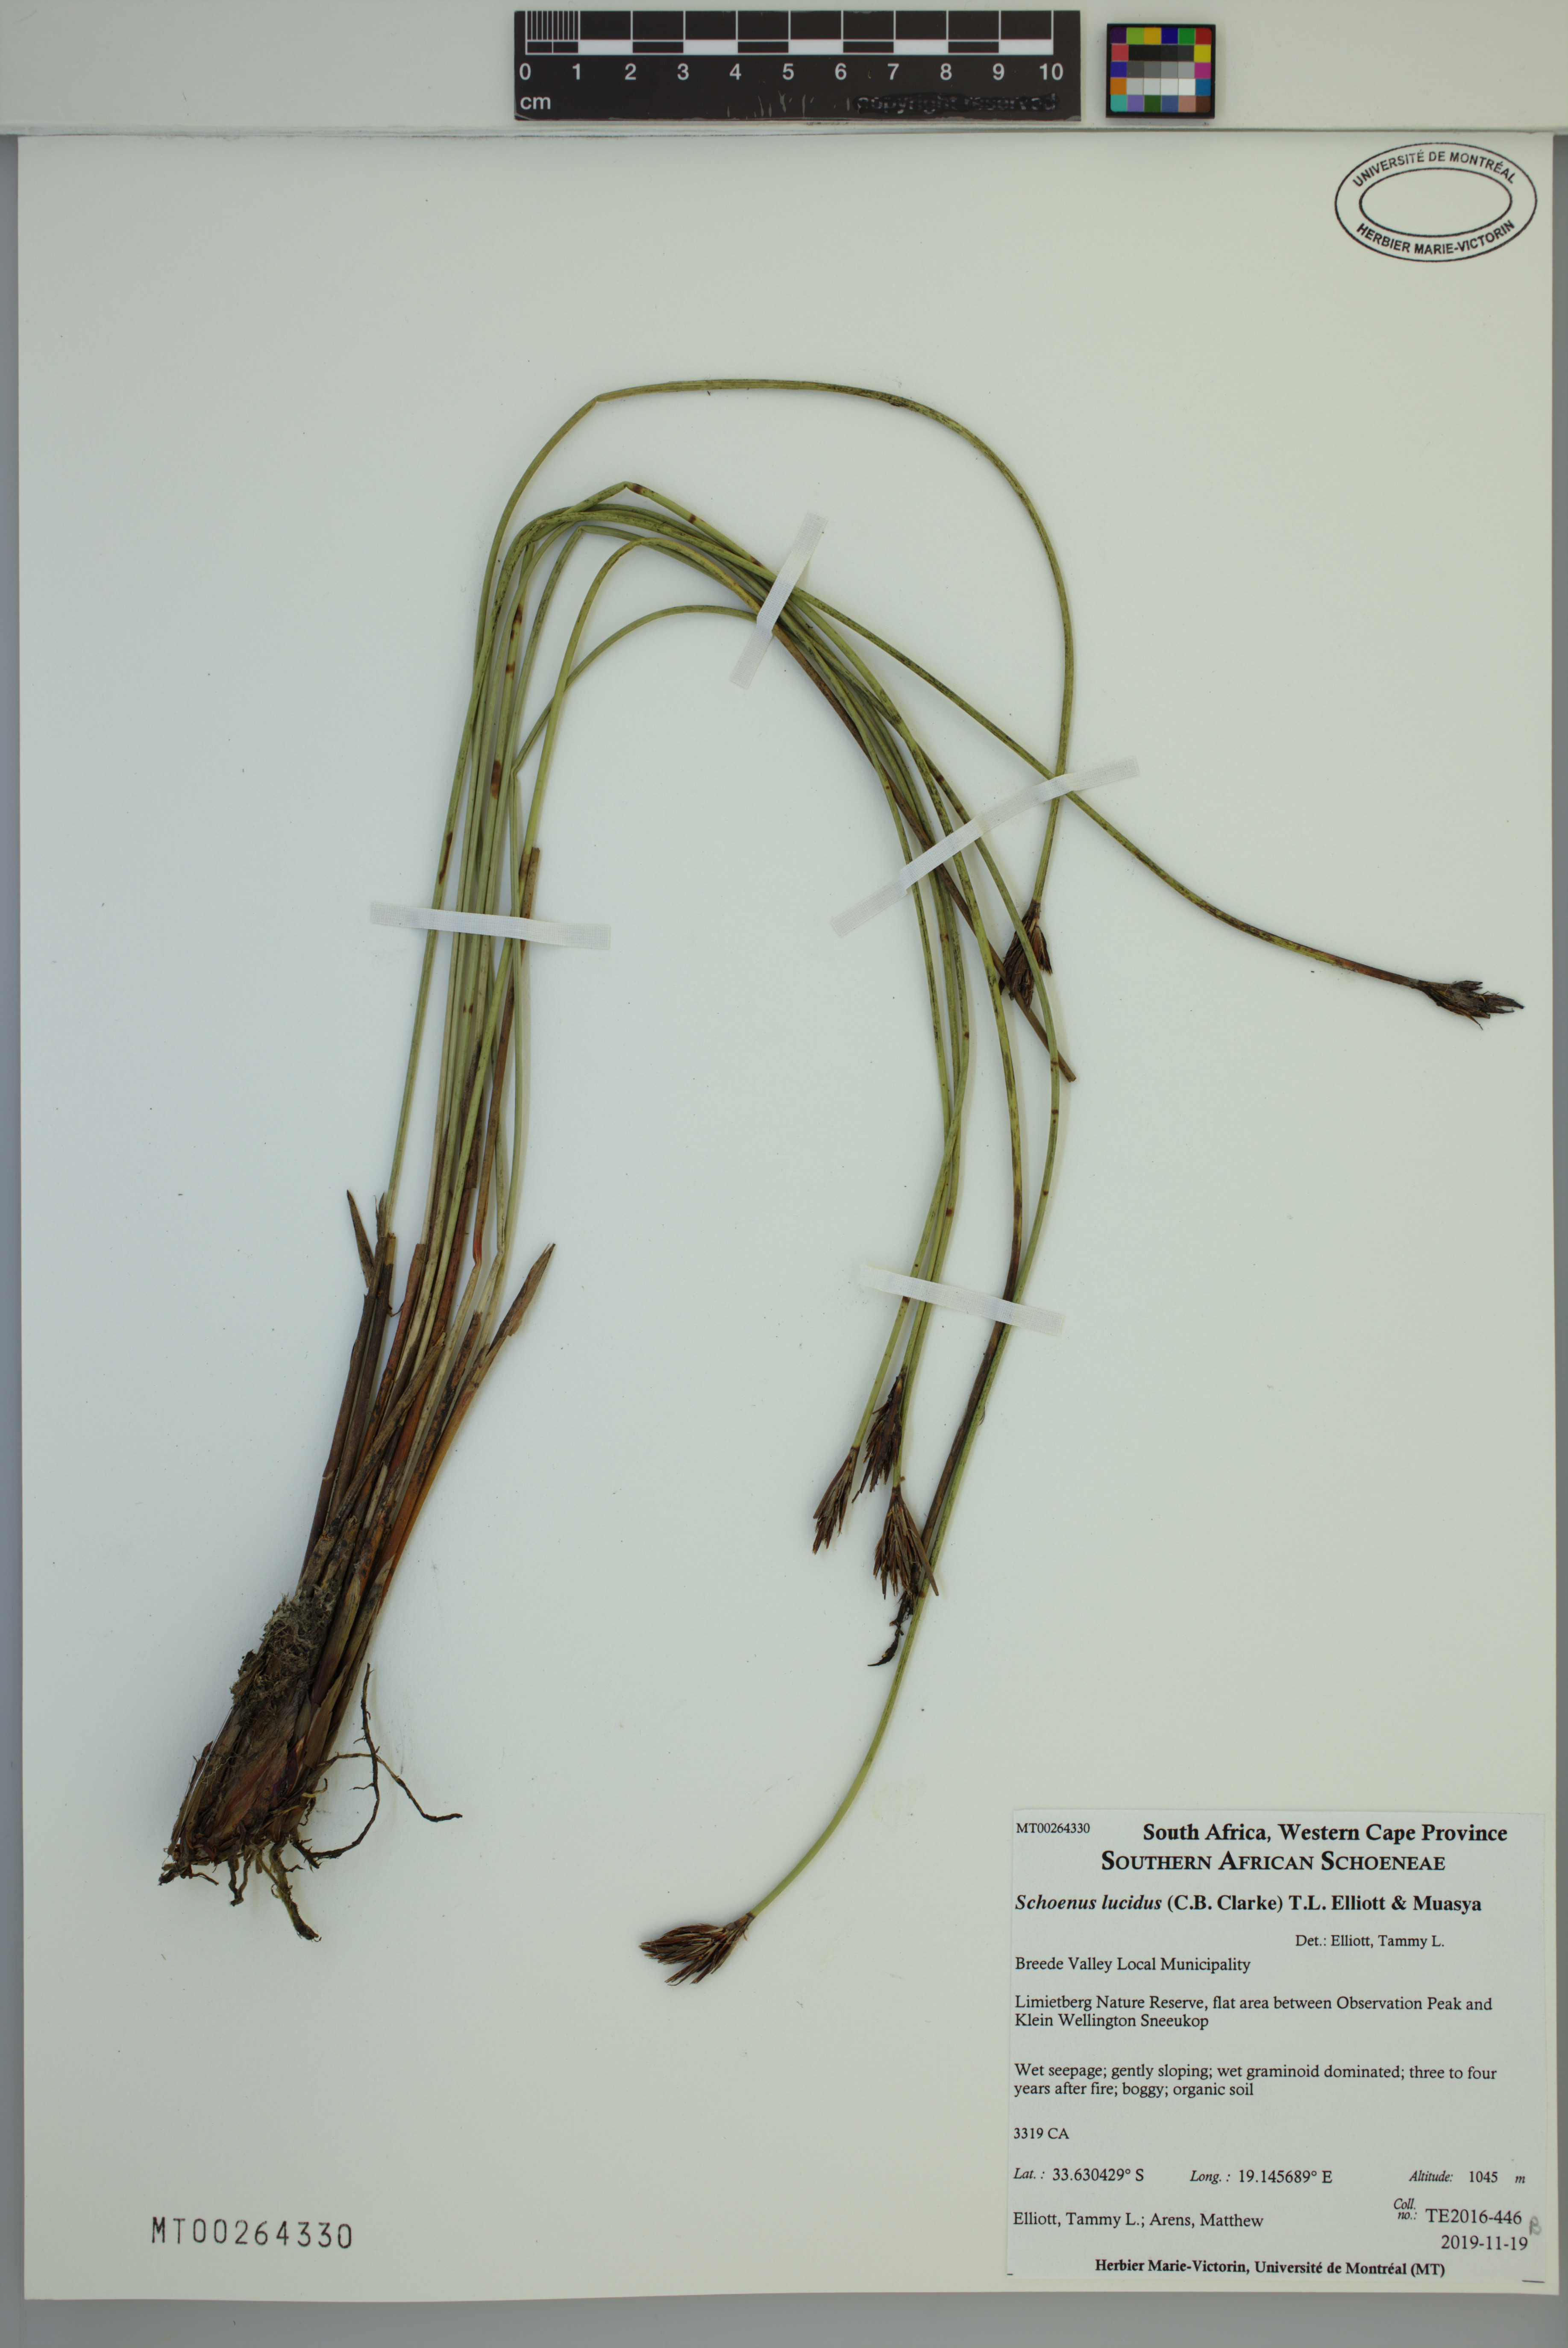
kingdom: Plantae
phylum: Tracheophyta
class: Liliopsida
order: Poales
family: Cyperaceae
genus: Schoenus
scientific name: Schoenus lucidus
